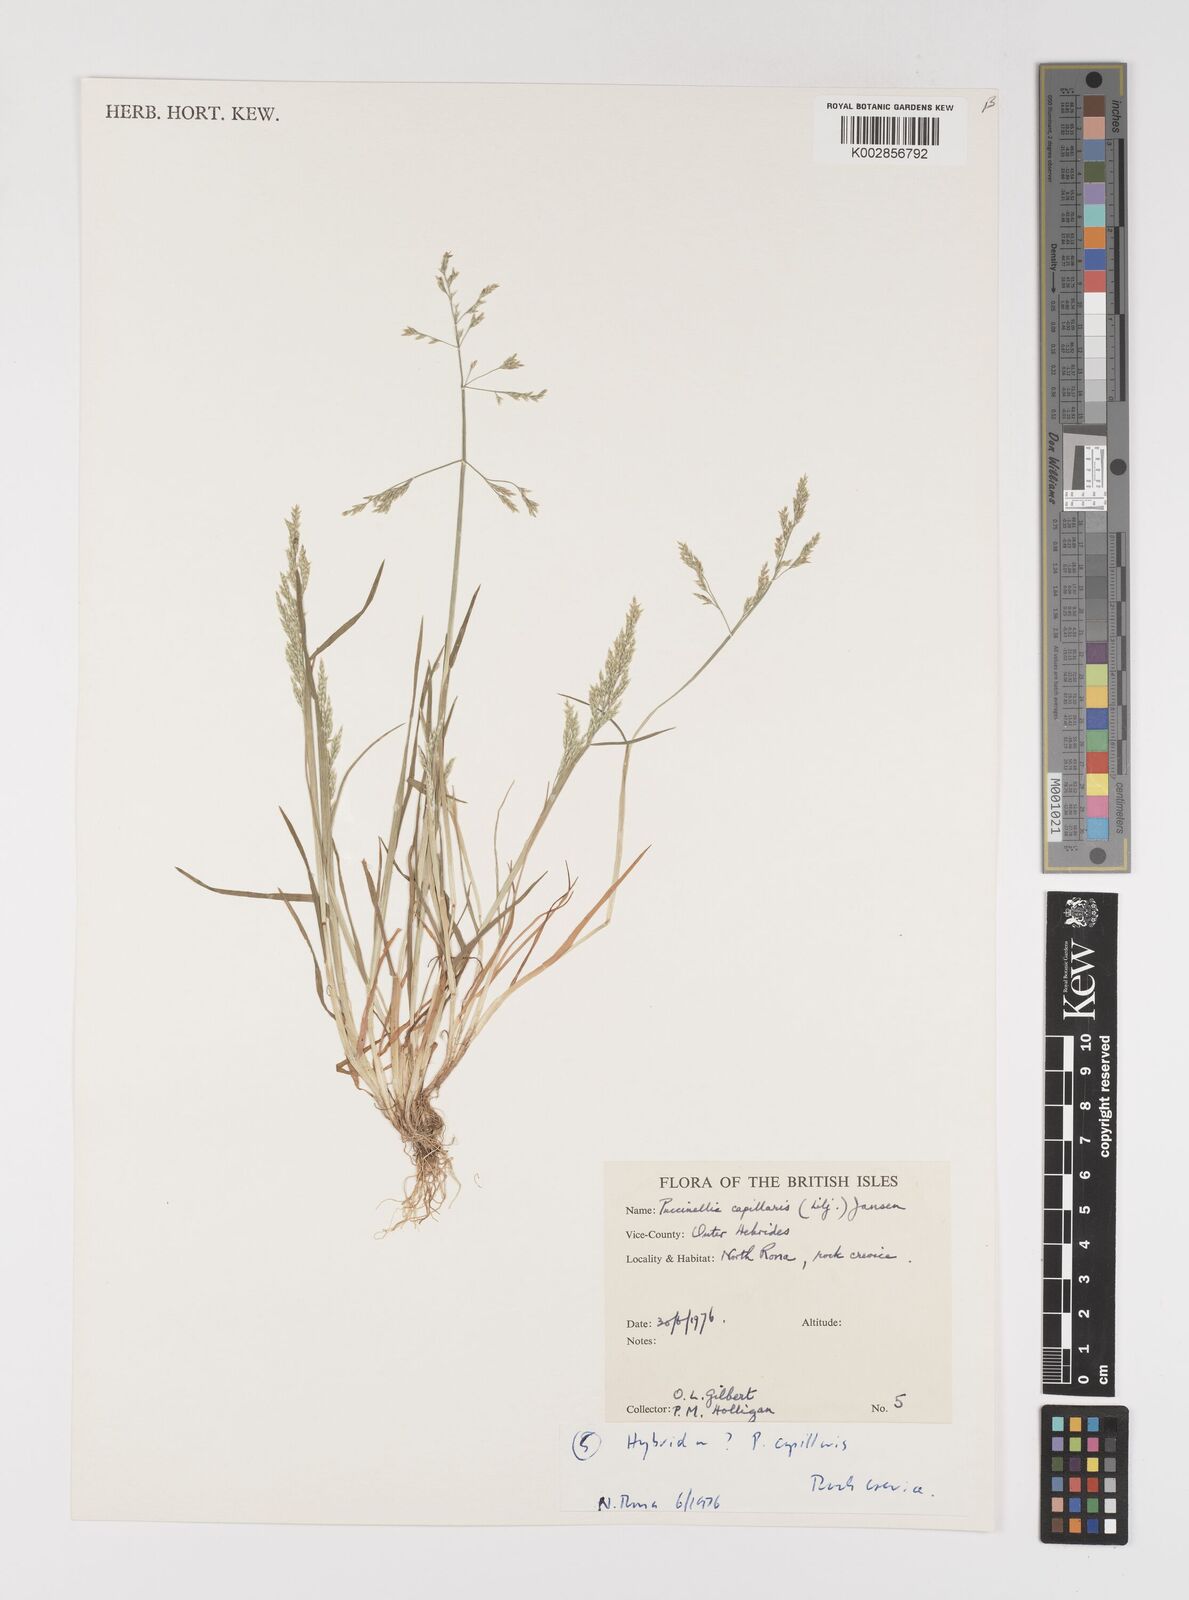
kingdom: Plantae
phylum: Tracheophyta
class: Liliopsida
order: Poales
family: Poaceae
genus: Puccinellia
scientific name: Puccinellia distans
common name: Weeping alkaligrass
